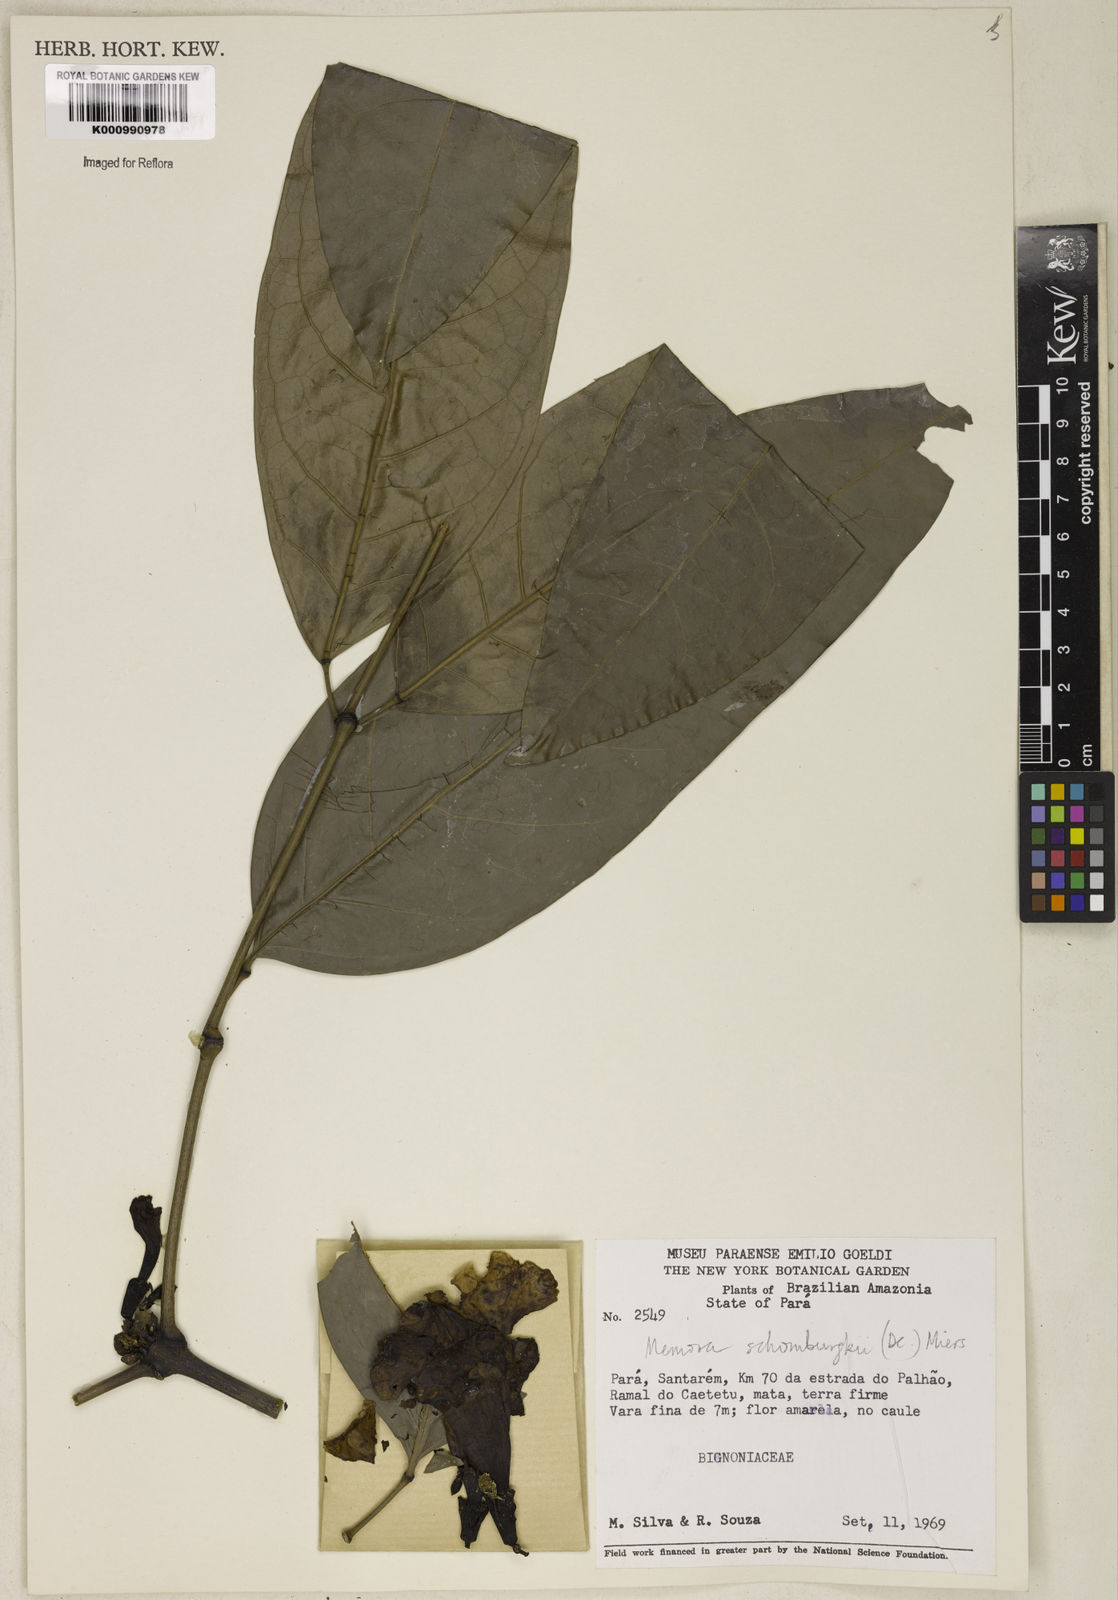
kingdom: Plantae
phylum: Tracheophyta
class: Magnoliopsida
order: Lamiales
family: Bignoniaceae
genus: Adenocalymma
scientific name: Adenocalymma schomburgkii
